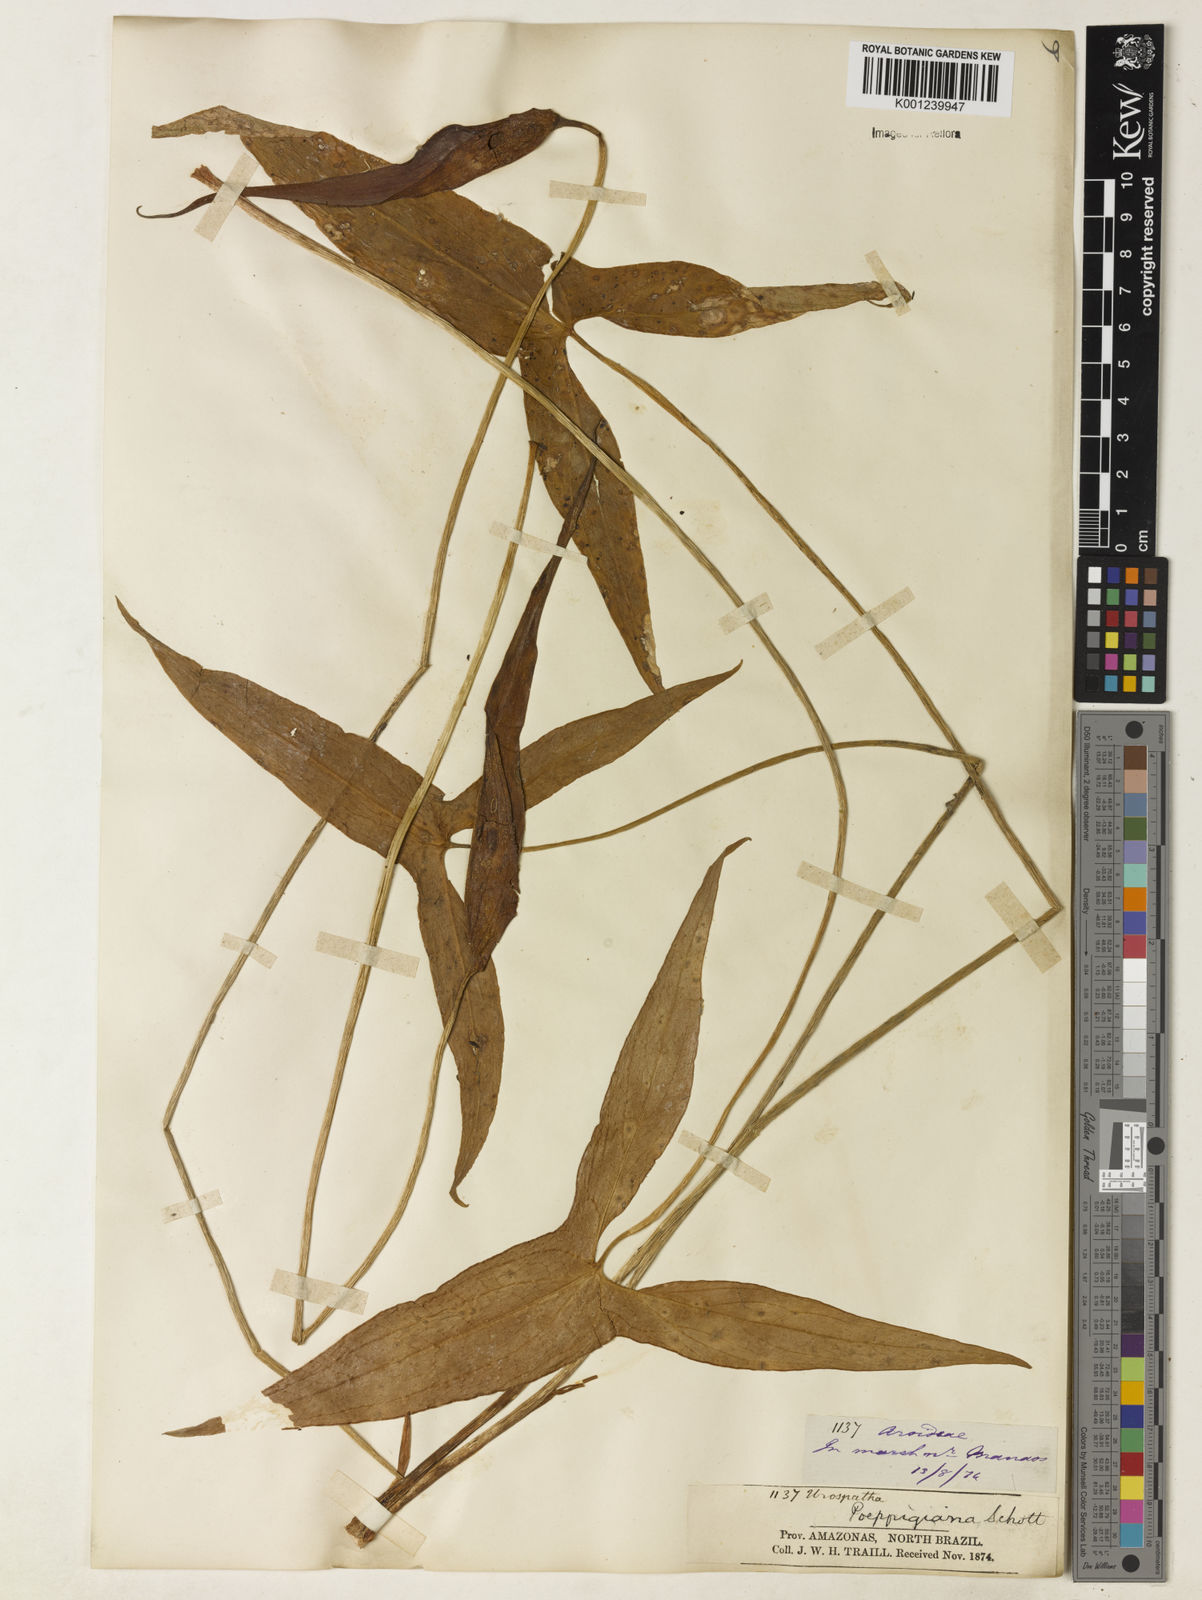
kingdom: Plantae
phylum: Tracheophyta
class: Liliopsida
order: Alismatales
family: Araceae
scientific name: Araceae
